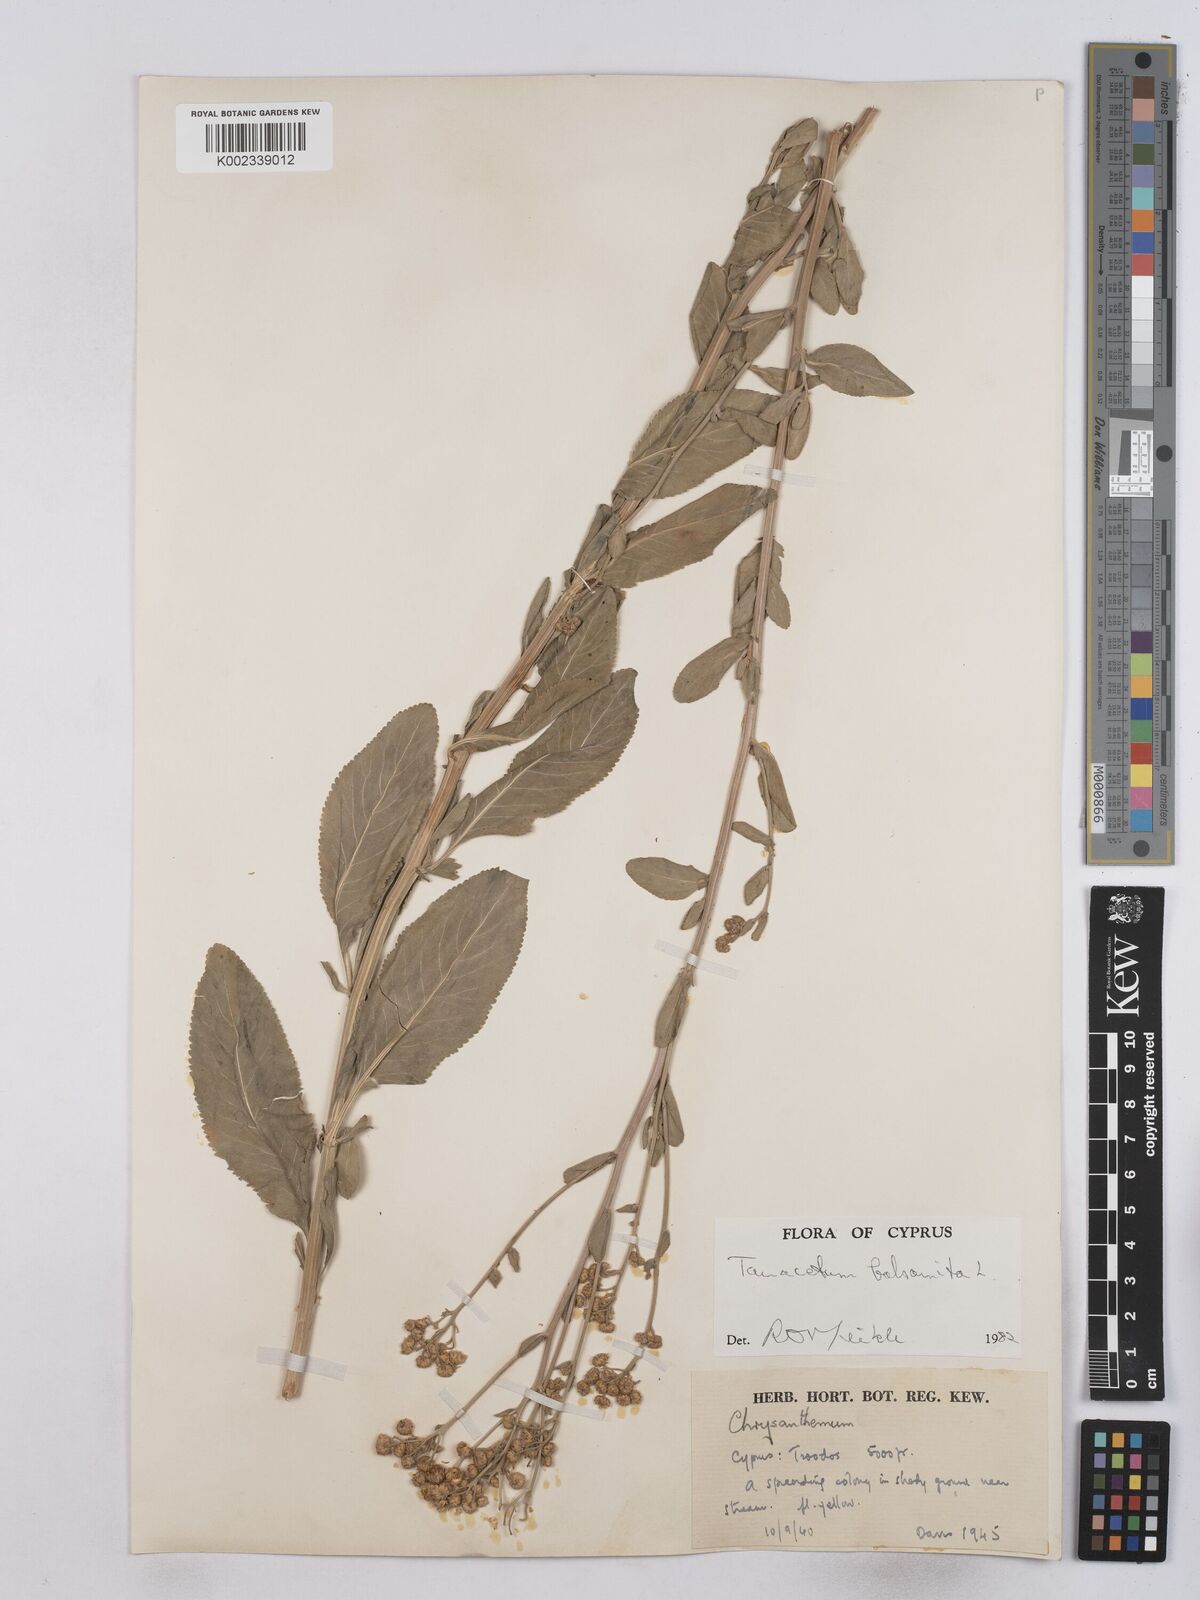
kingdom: Plantae
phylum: Tracheophyta
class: Magnoliopsida
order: Asterales
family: Asteraceae
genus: Tanacetum
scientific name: Tanacetum balsamita
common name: Costmary
